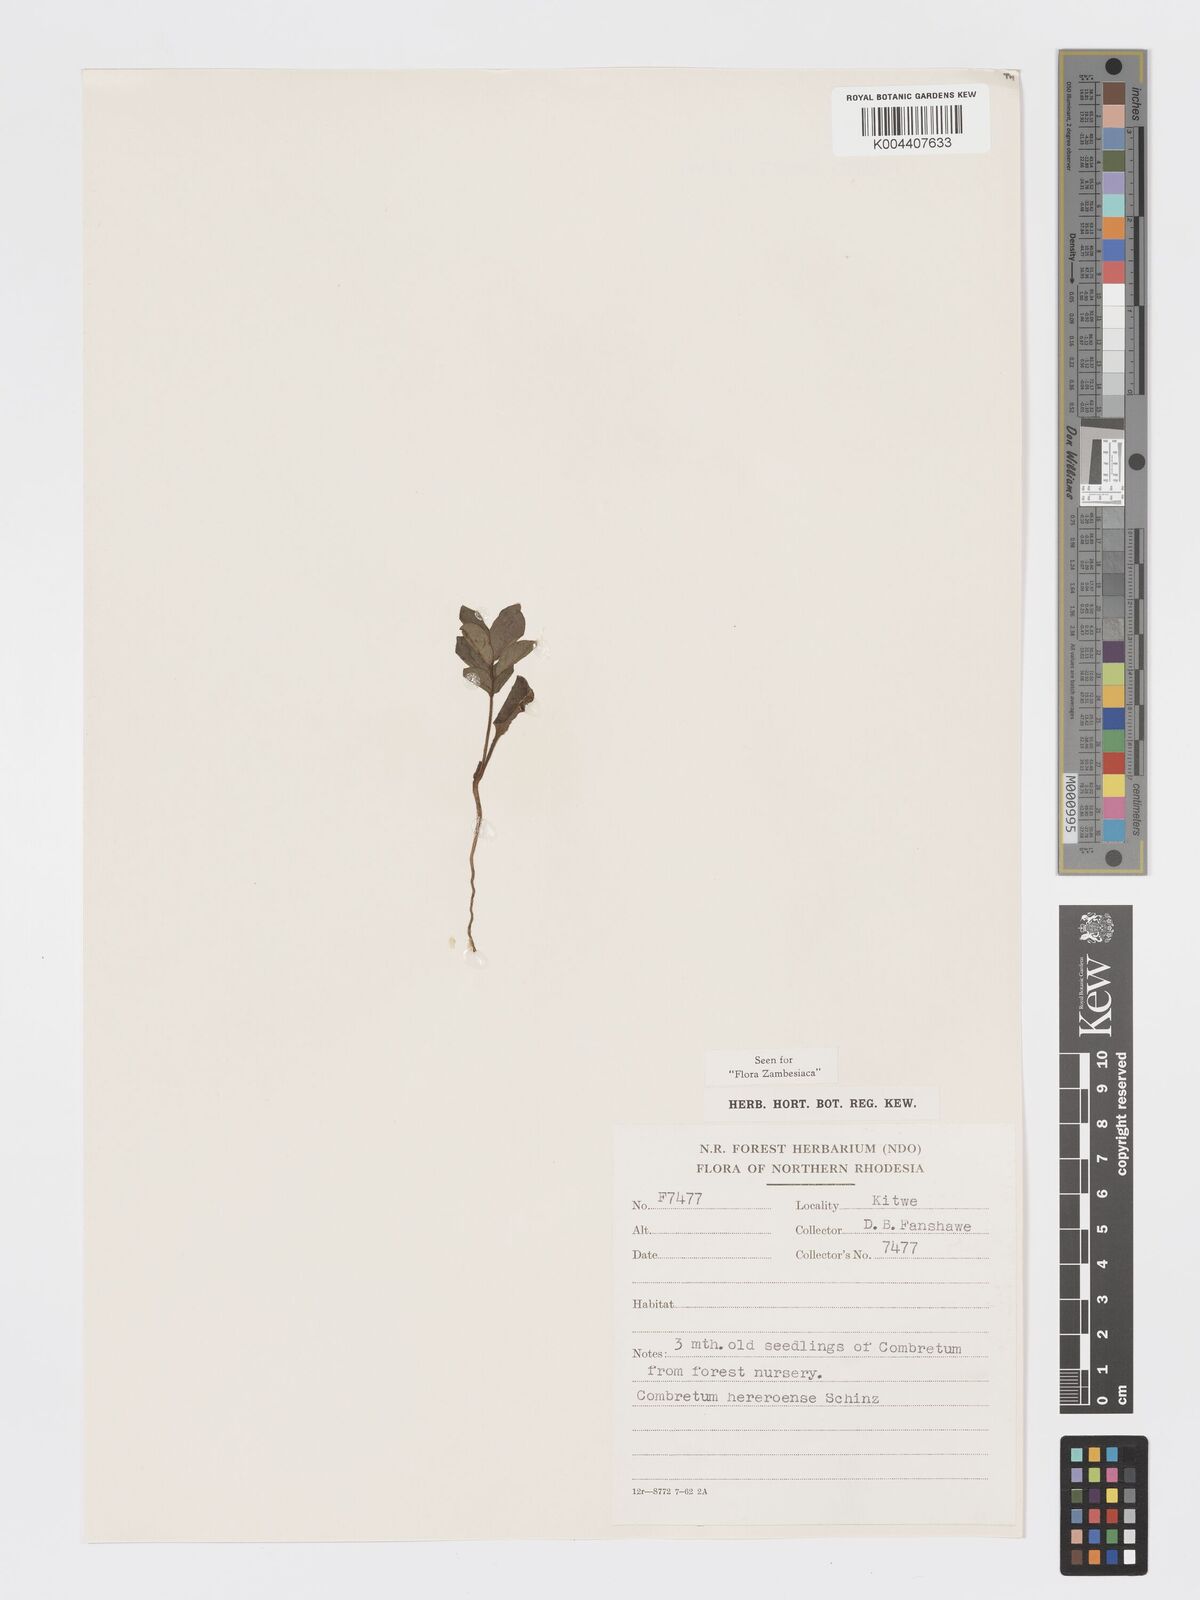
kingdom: Plantae
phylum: Tracheophyta
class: Magnoliopsida
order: Myrtales
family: Combretaceae
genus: Combretum
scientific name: Combretum hereroense
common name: Russet bushwillow
